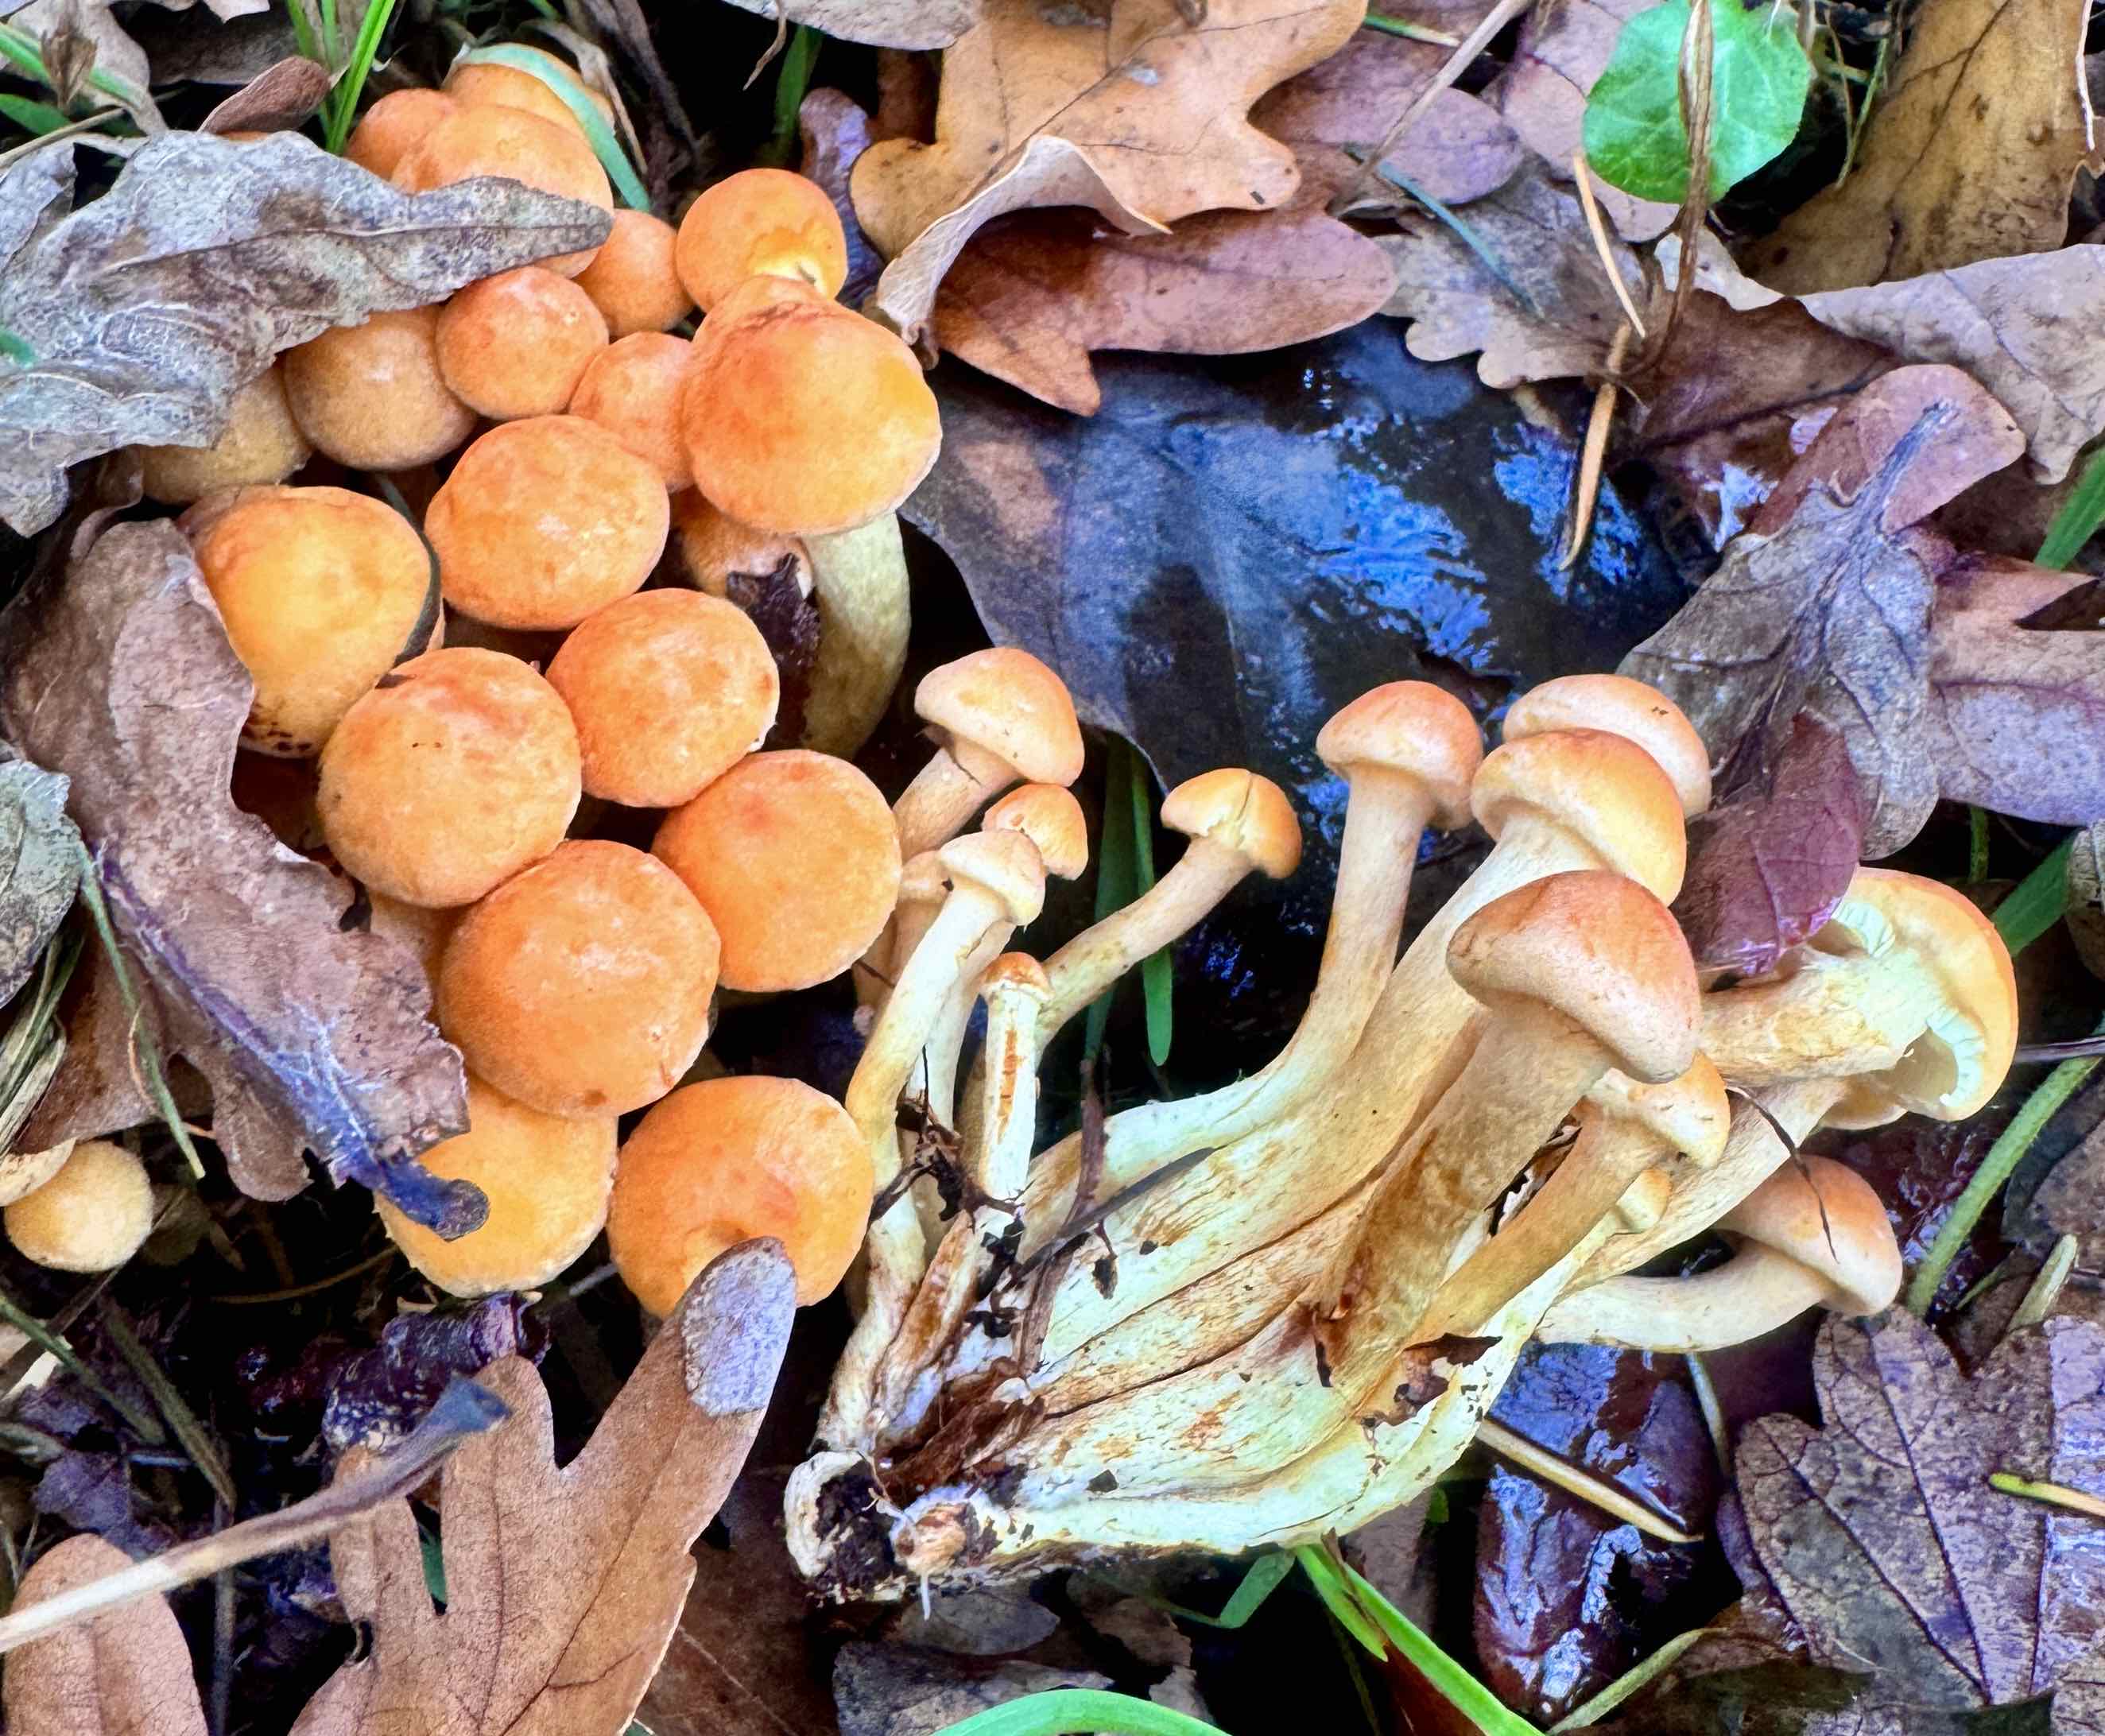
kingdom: Fungi
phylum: Basidiomycota
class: Agaricomycetes
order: Agaricales
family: Strophariaceae
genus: Hypholoma
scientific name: Hypholoma fasciculare
